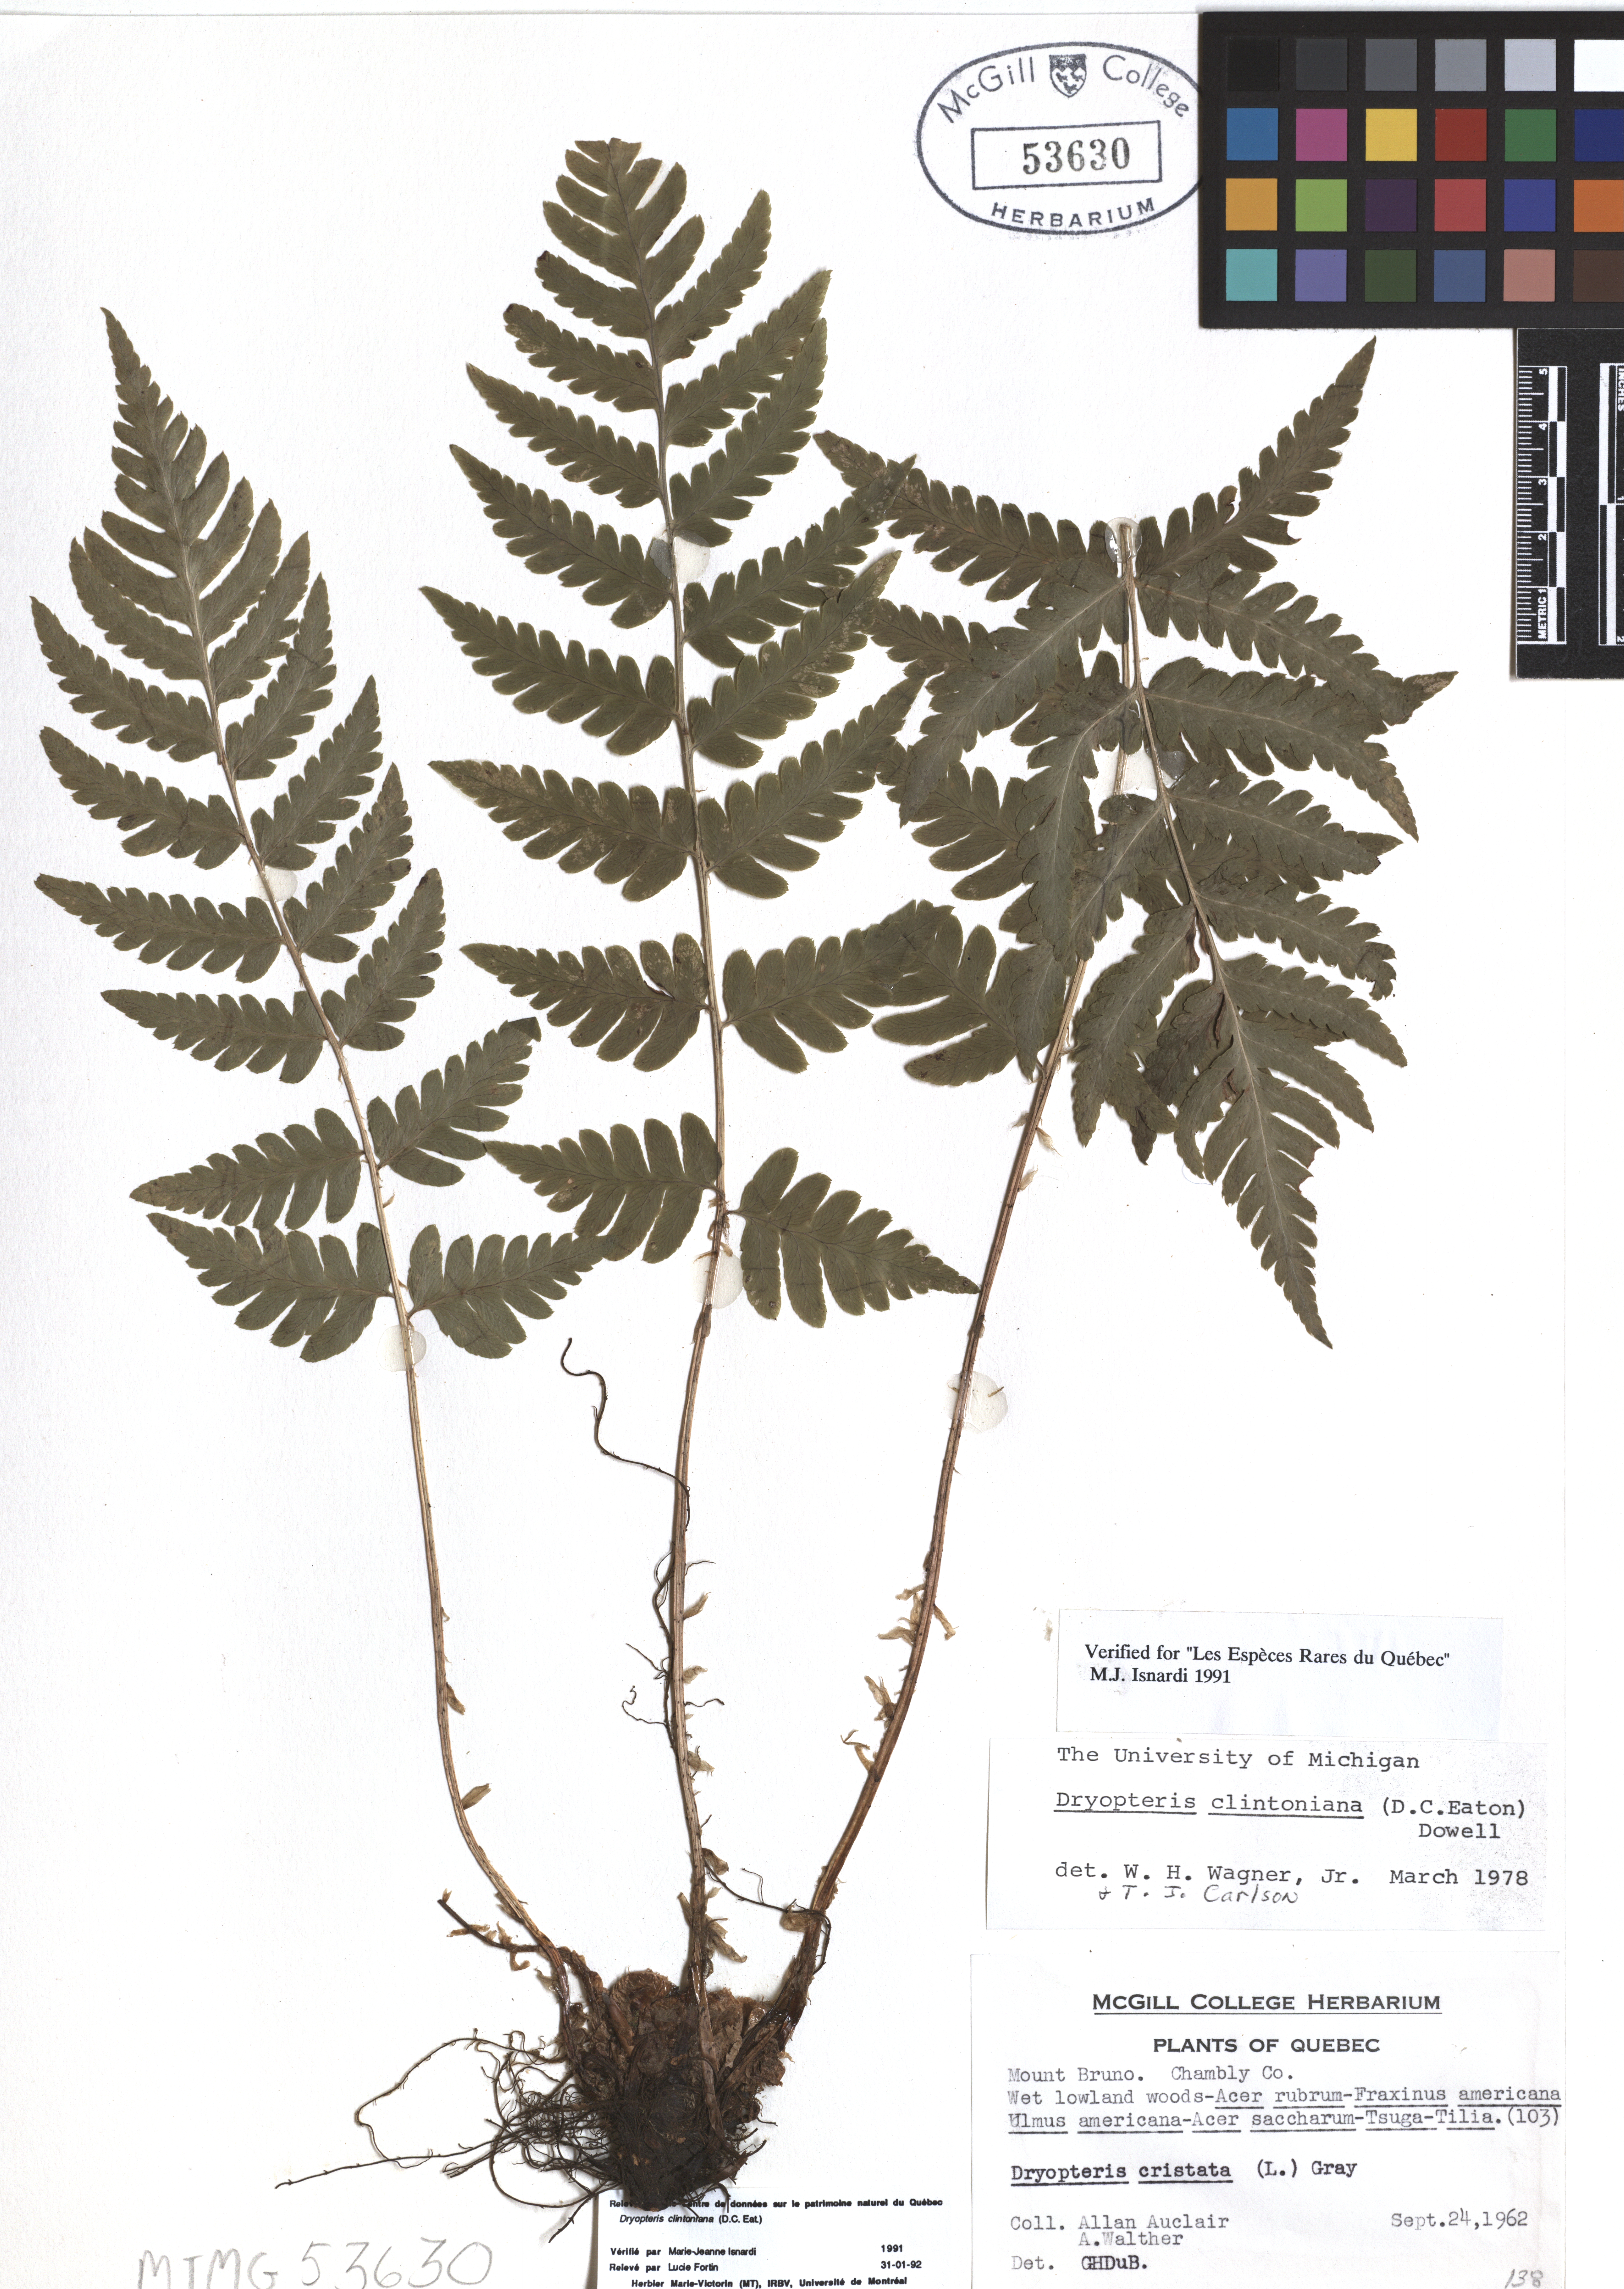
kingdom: Plantae
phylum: Tracheophyta
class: Polypodiopsida
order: Polypodiales
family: Dryopteridaceae
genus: Dryopteris
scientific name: Dryopteris clintoniana
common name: Clinton's wood fern
